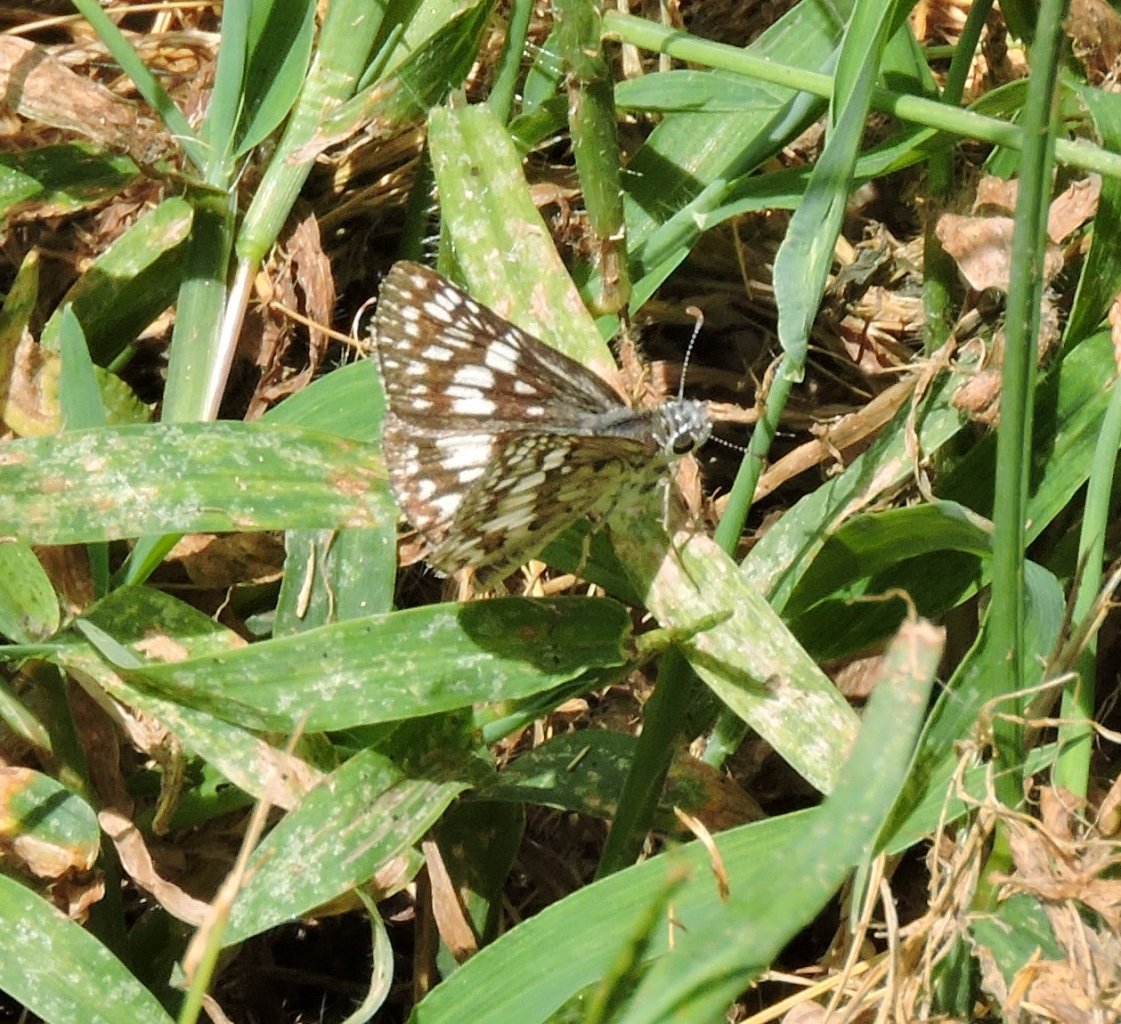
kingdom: Animalia
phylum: Arthropoda
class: Insecta
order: Lepidoptera
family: Hesperiidae
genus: Pyrgus
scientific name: Pyrgus
